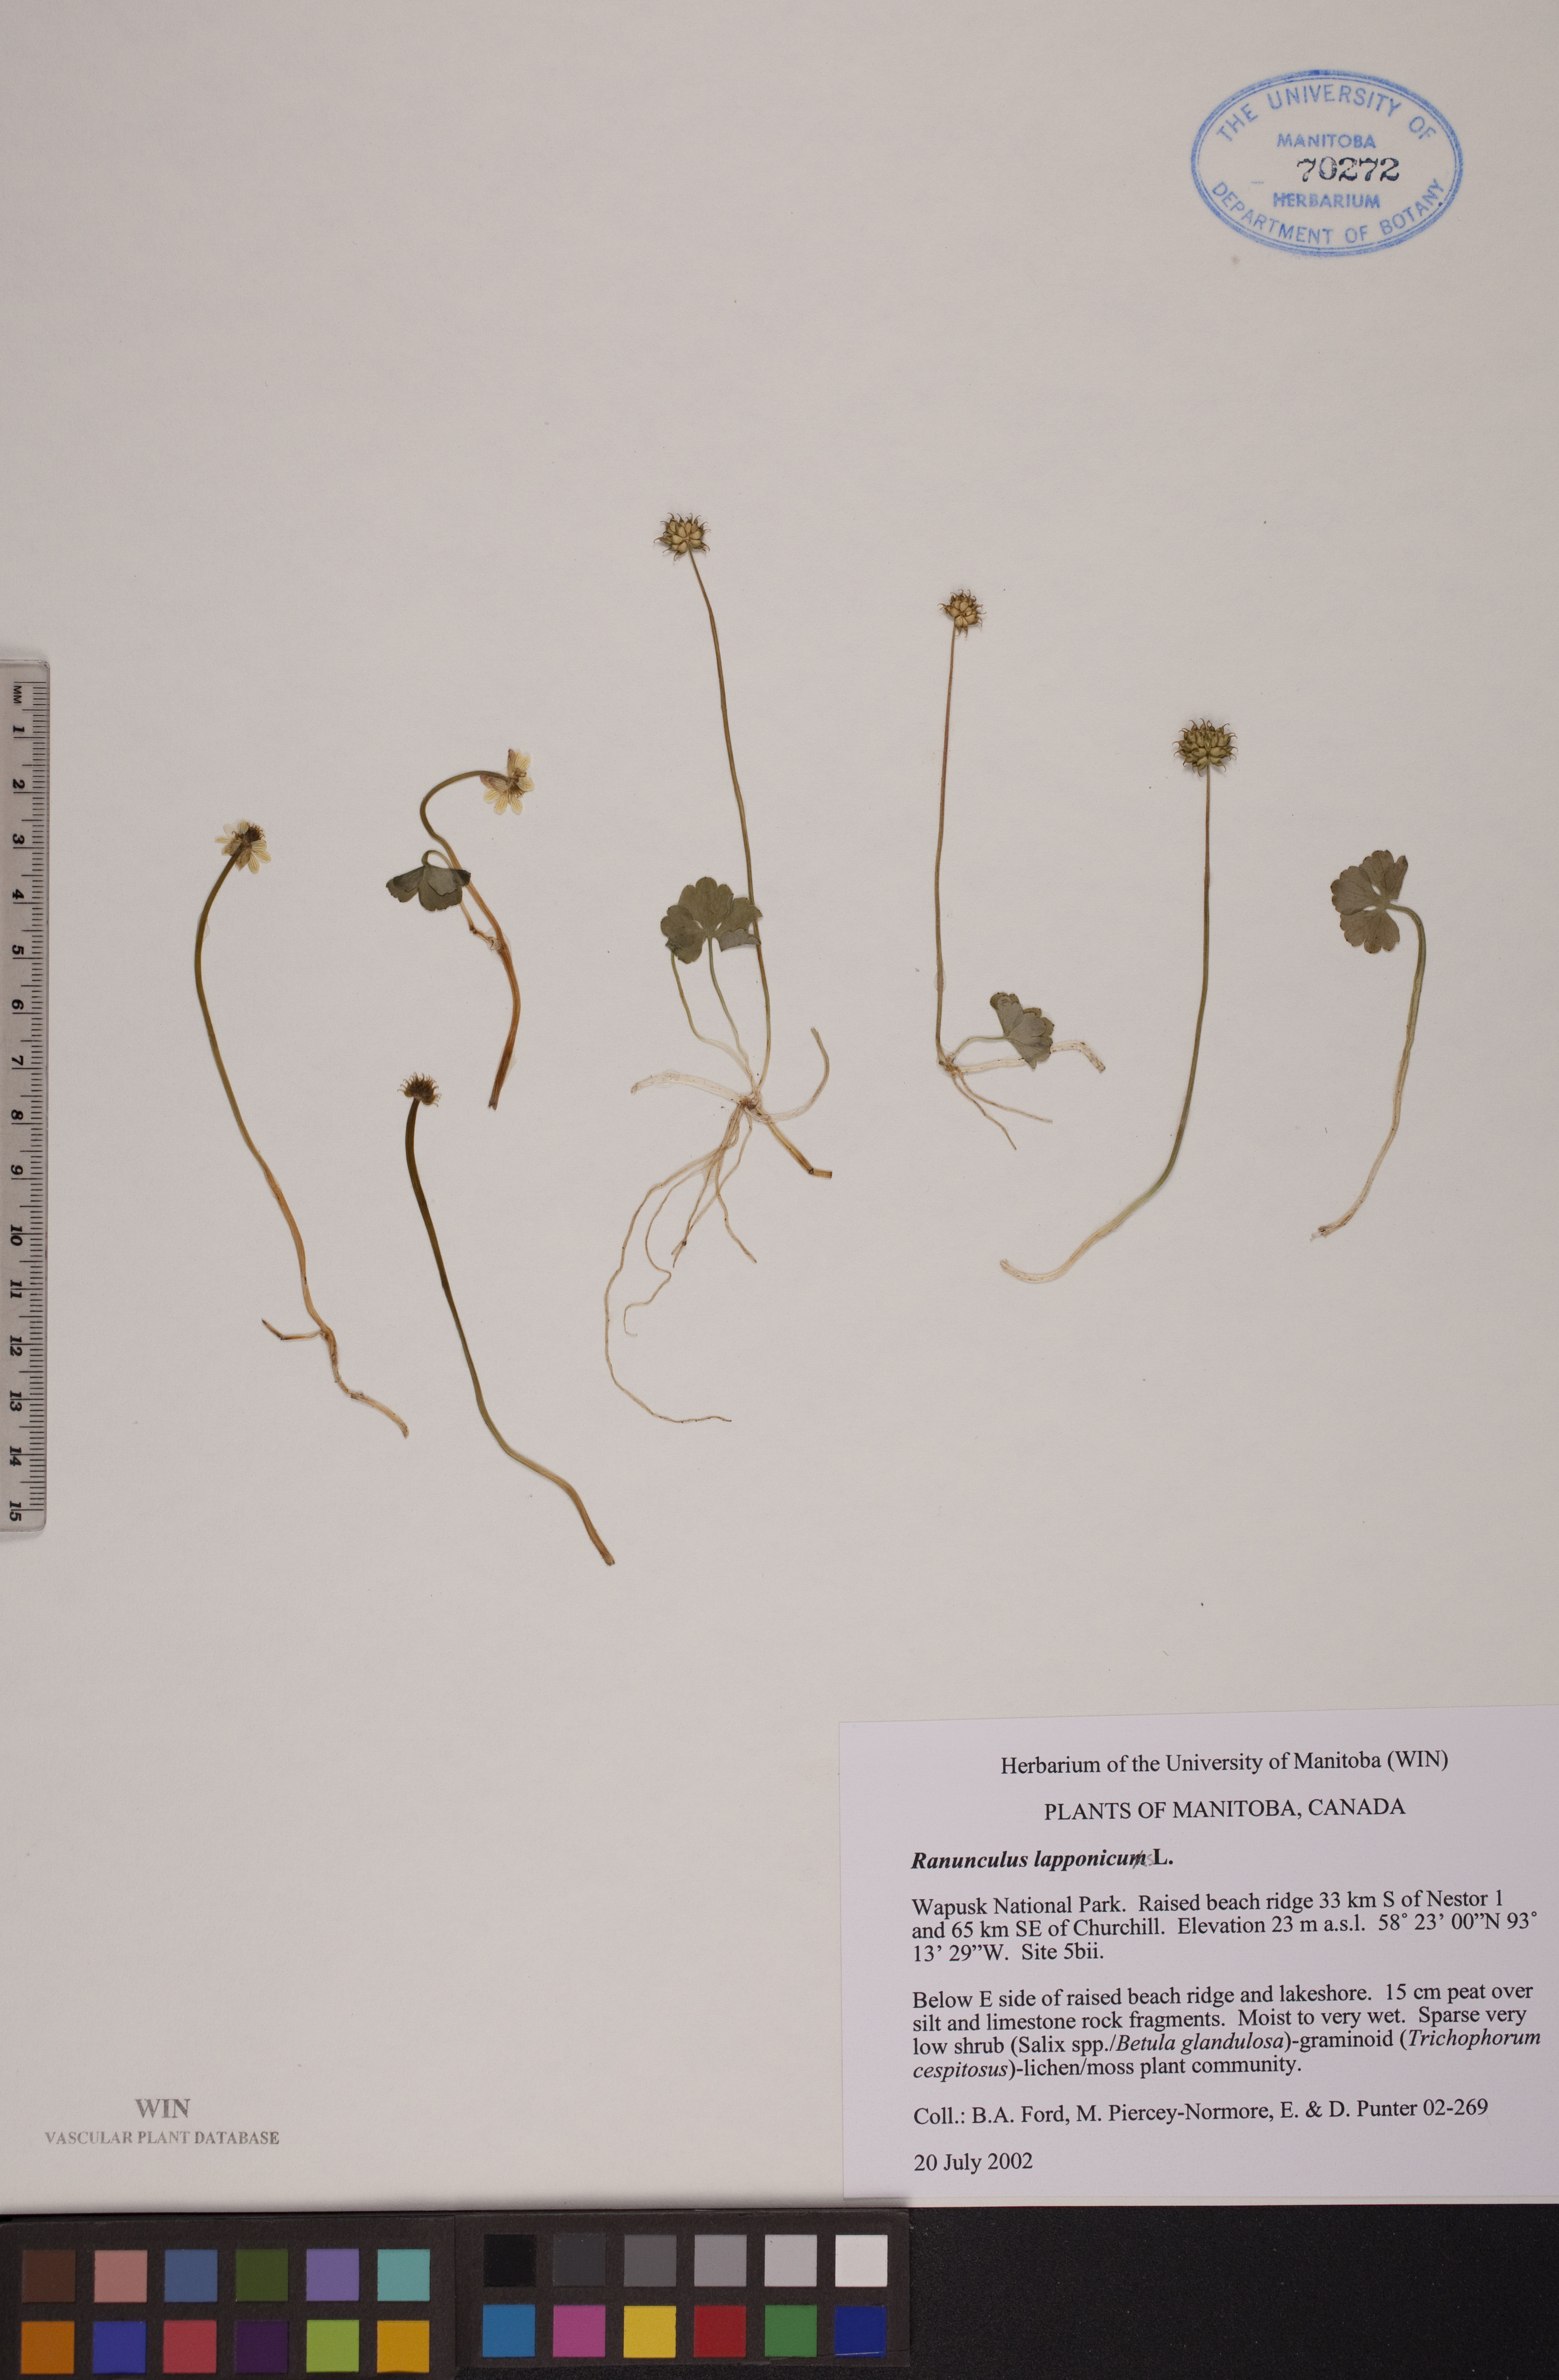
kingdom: Plantae
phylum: Tracheophyta
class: Magnoliopsida
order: Ranunculales
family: Ranunculaceae
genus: Coptidium
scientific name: Coptidium lapponicum
